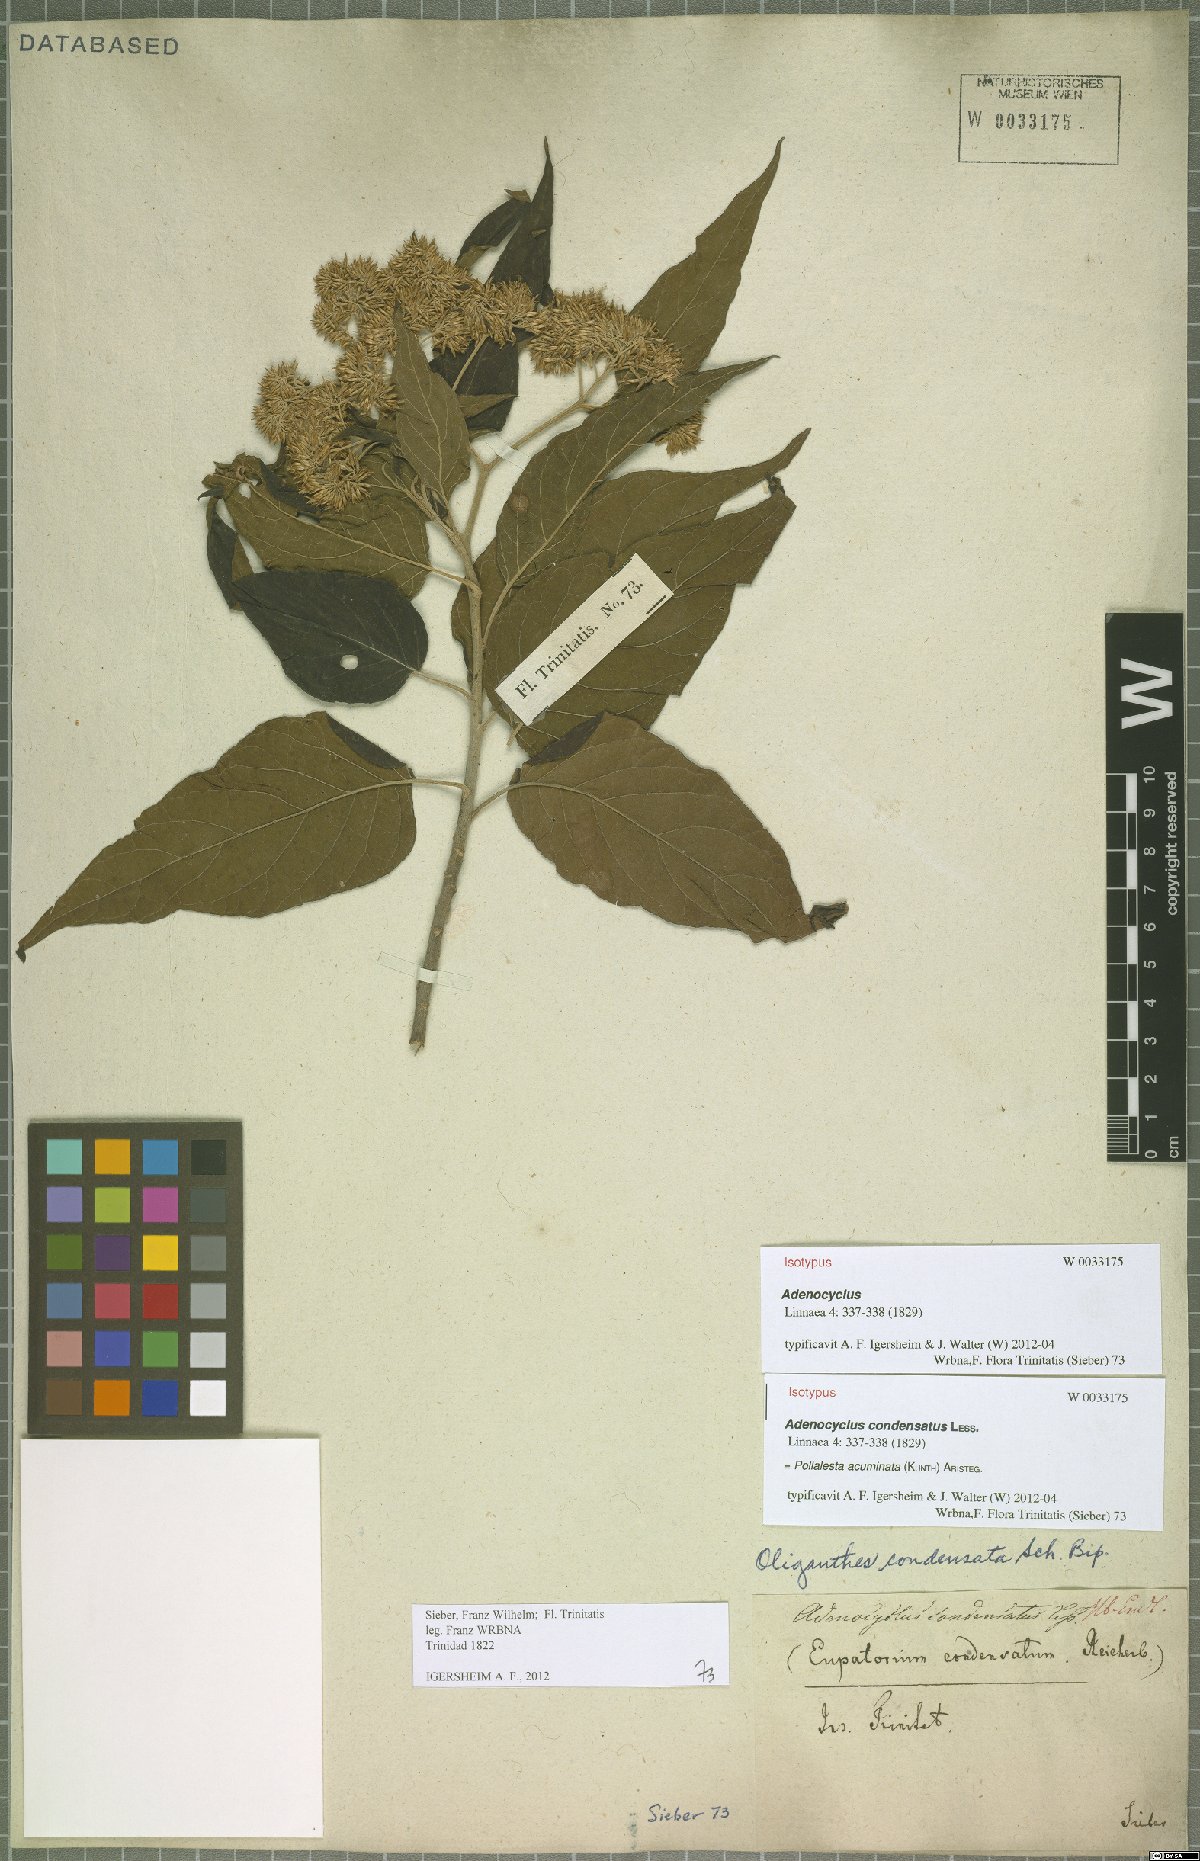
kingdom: Plantae
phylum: Tracheophyta
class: Magnoliopsida
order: Asterales
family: Asteraceae
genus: Piptocoma
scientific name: Piptocoma acuminata
